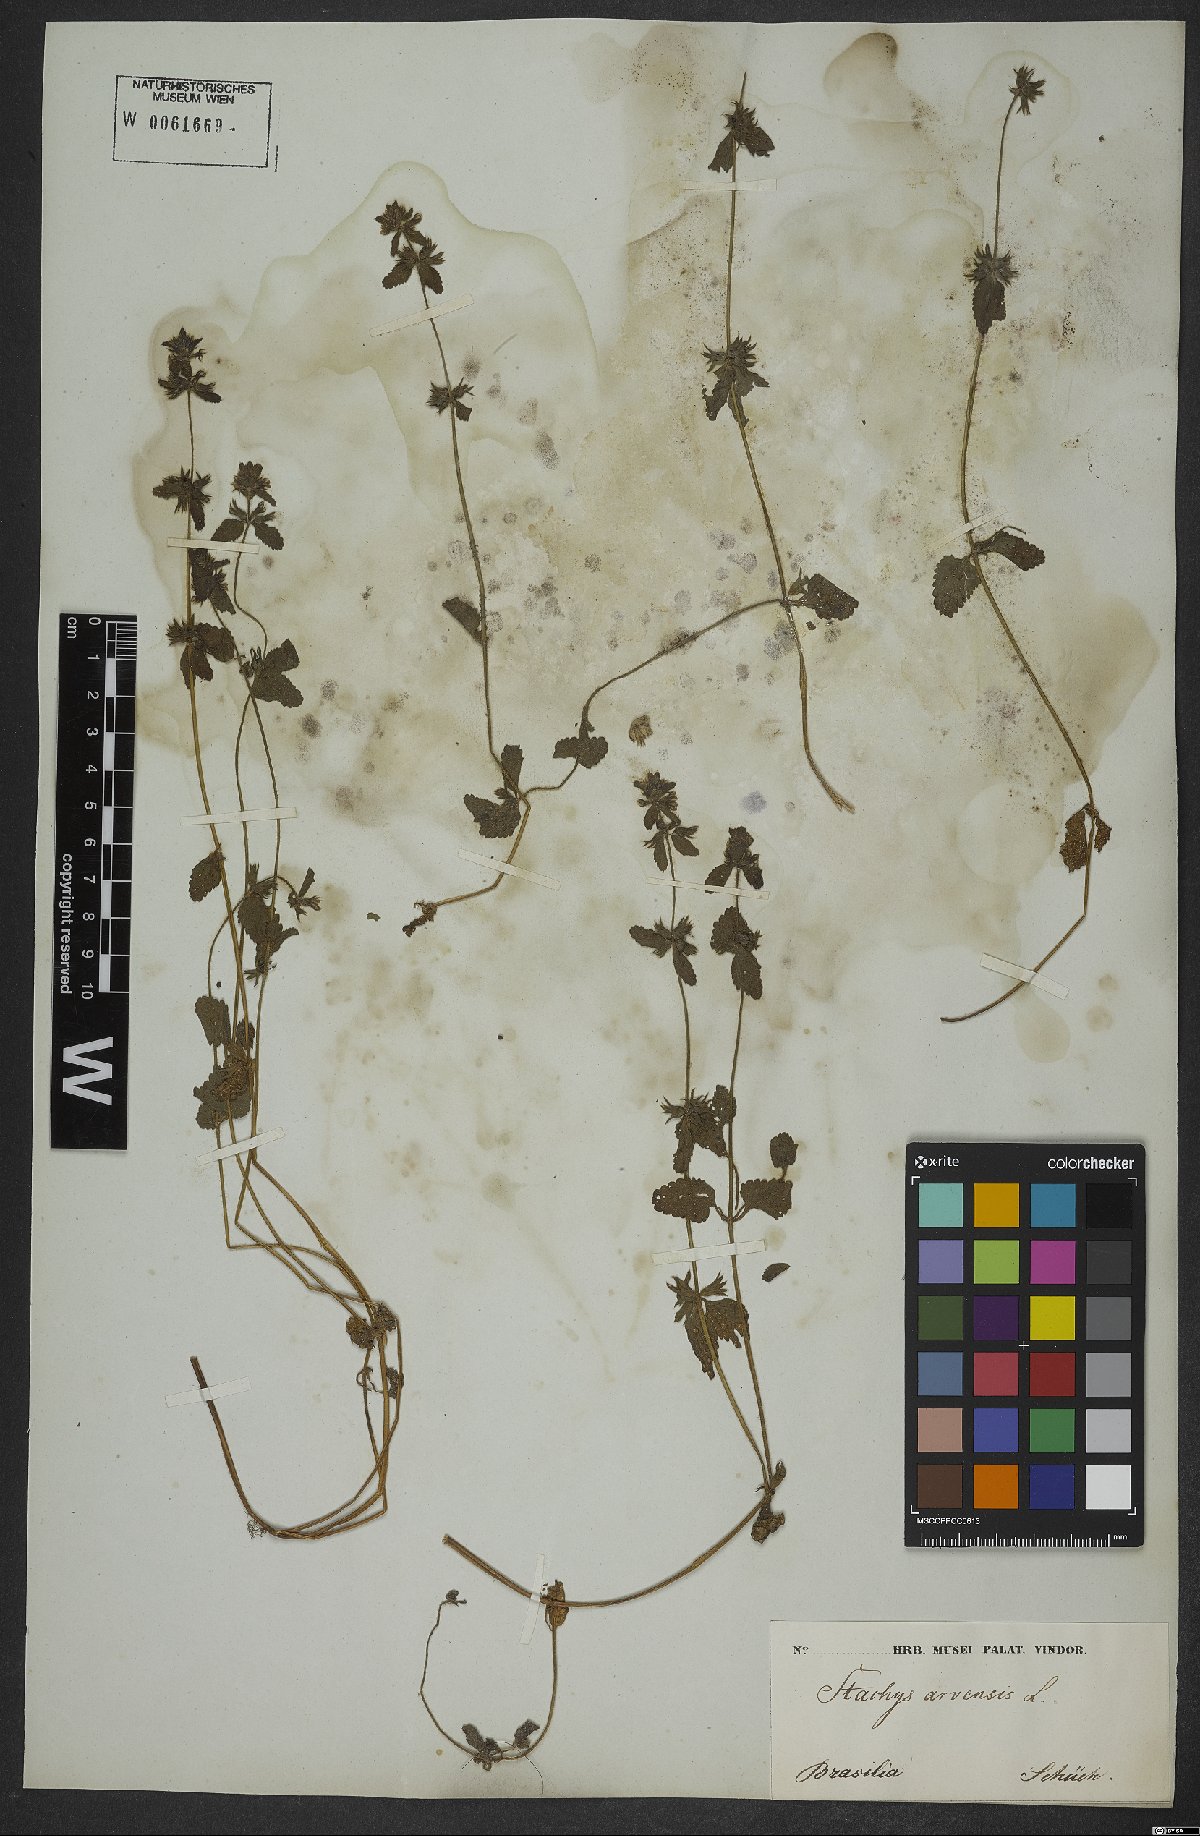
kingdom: Plantae
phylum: Tracheophyta
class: Magnoliopsida
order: Lamiales
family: Lamiaceae
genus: Stachys
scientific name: Stachys arvensis
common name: Field woundwort
